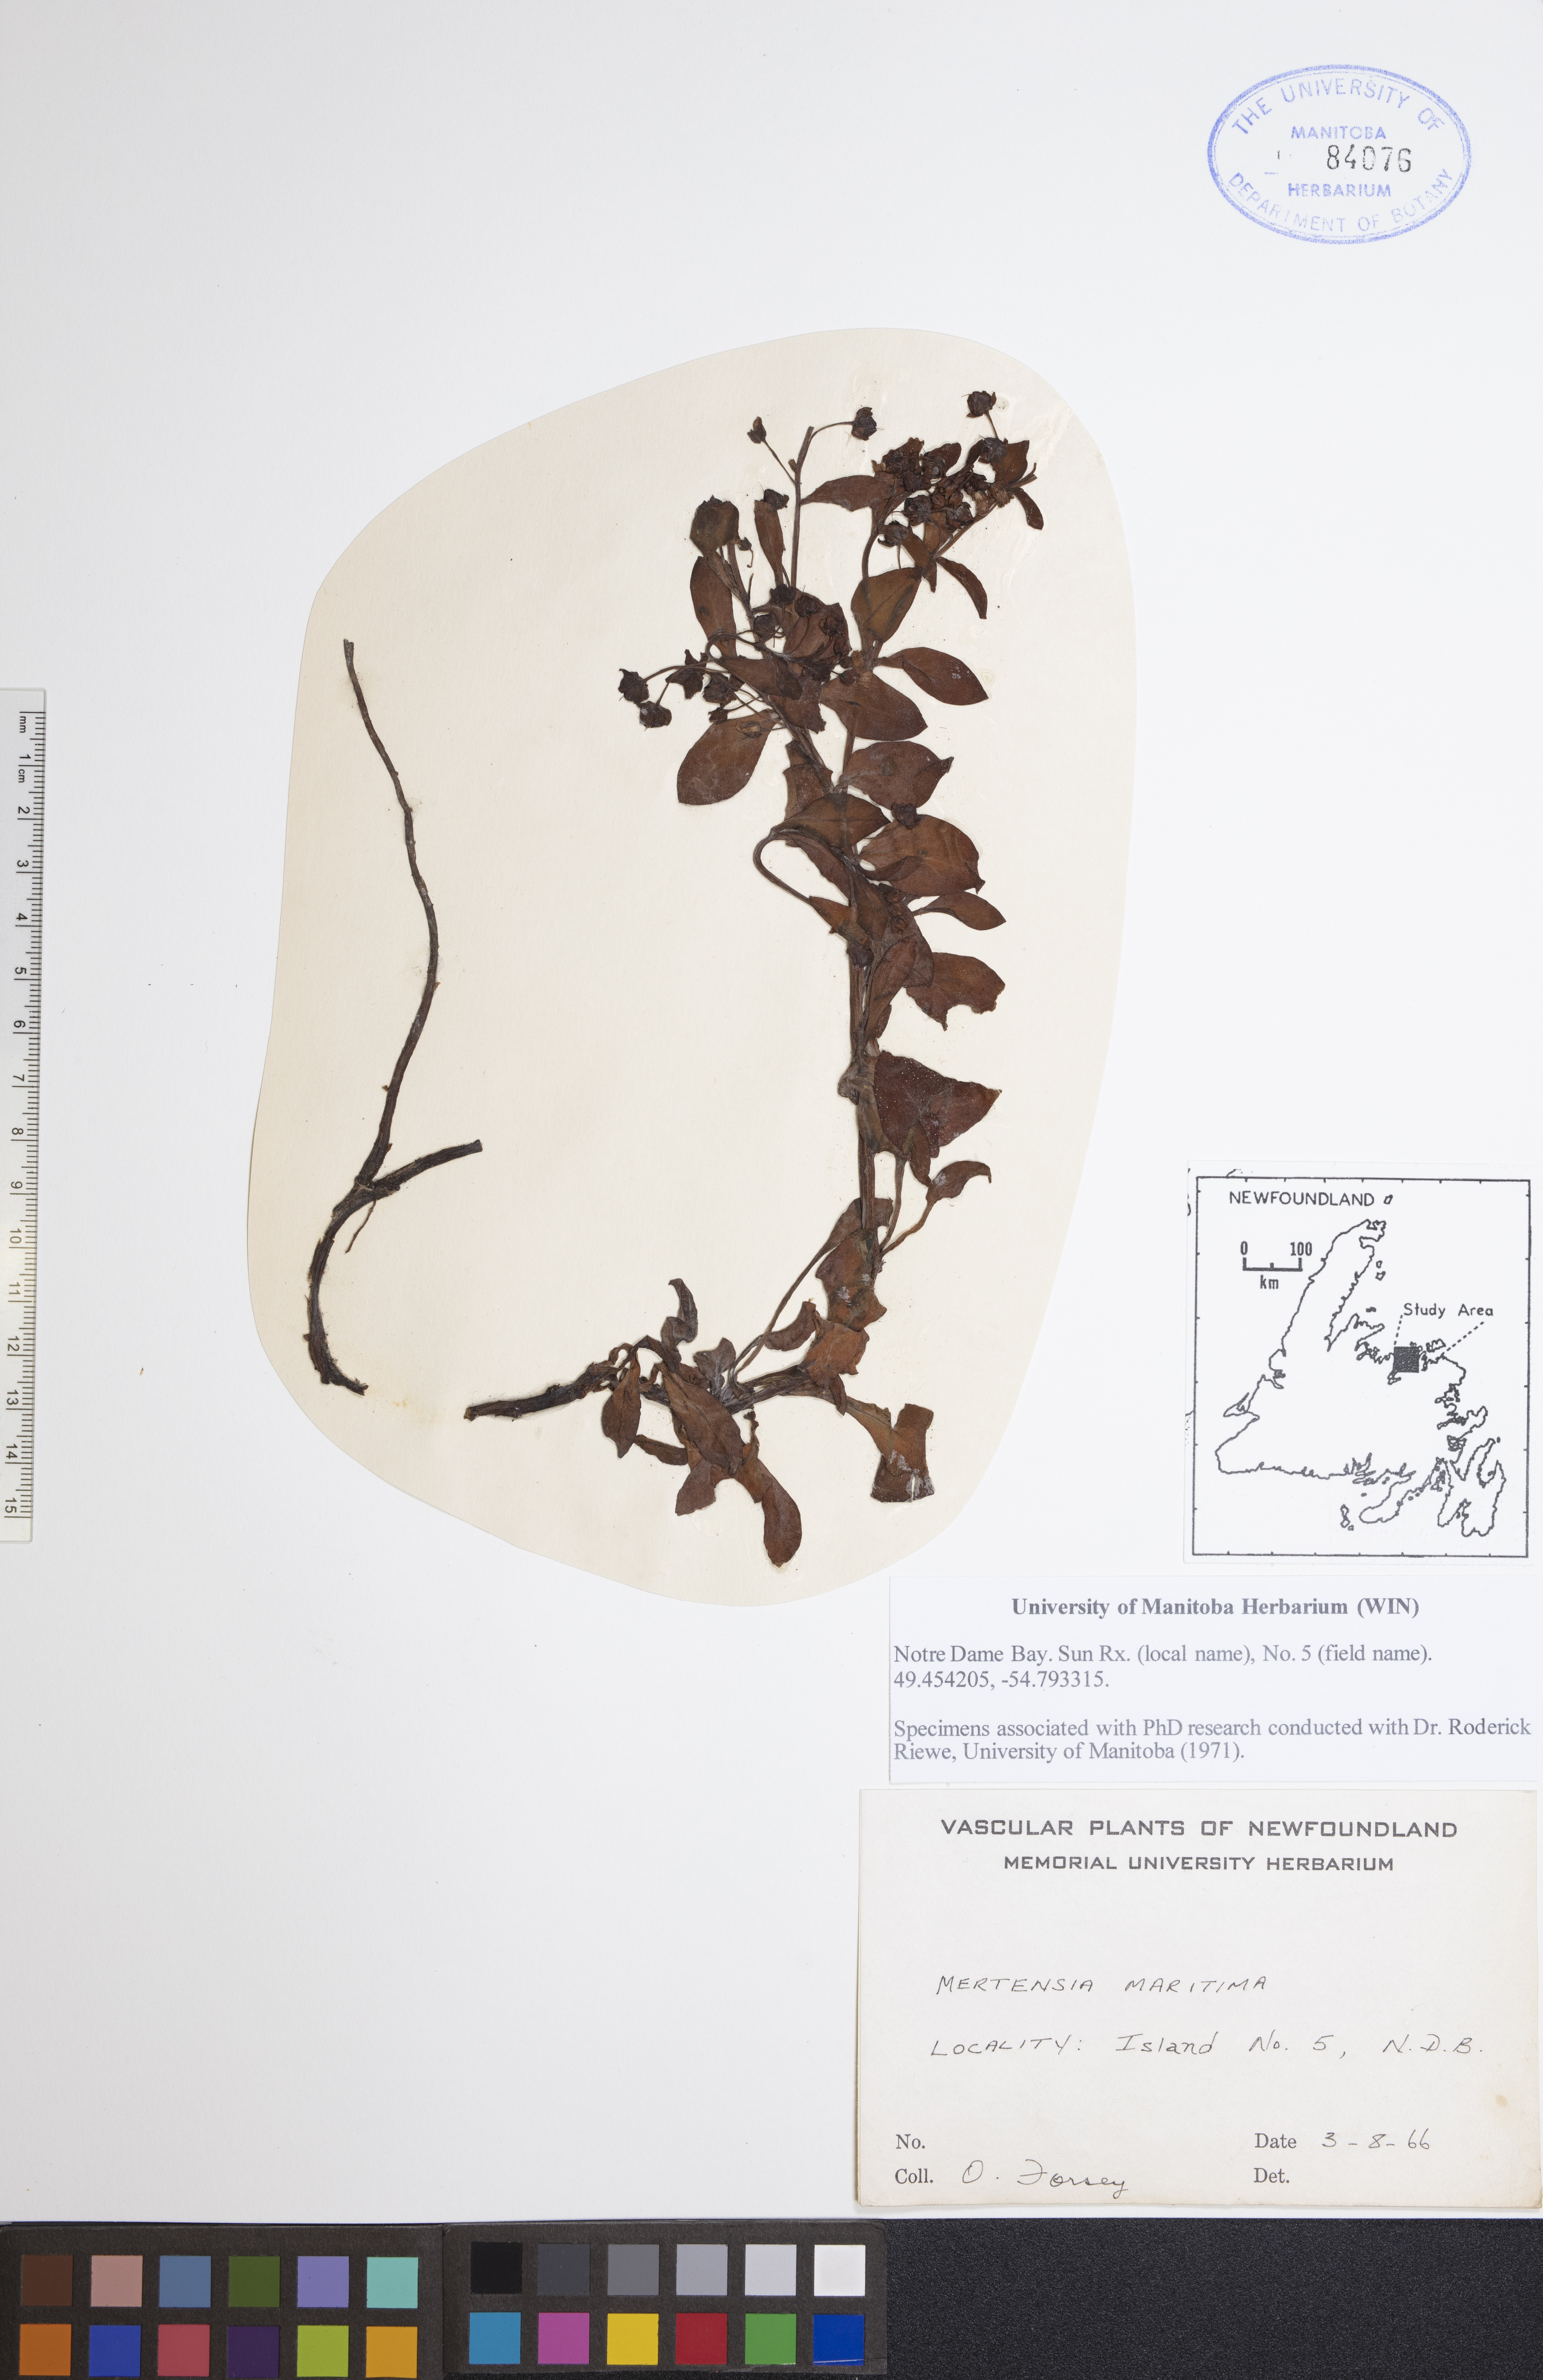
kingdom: Plantae
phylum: Tracheophyta
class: Magnoliopsida
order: Boraginales
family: Boraginaceae
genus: Mertensia
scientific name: Mertensia maritima
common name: Oysterplant
